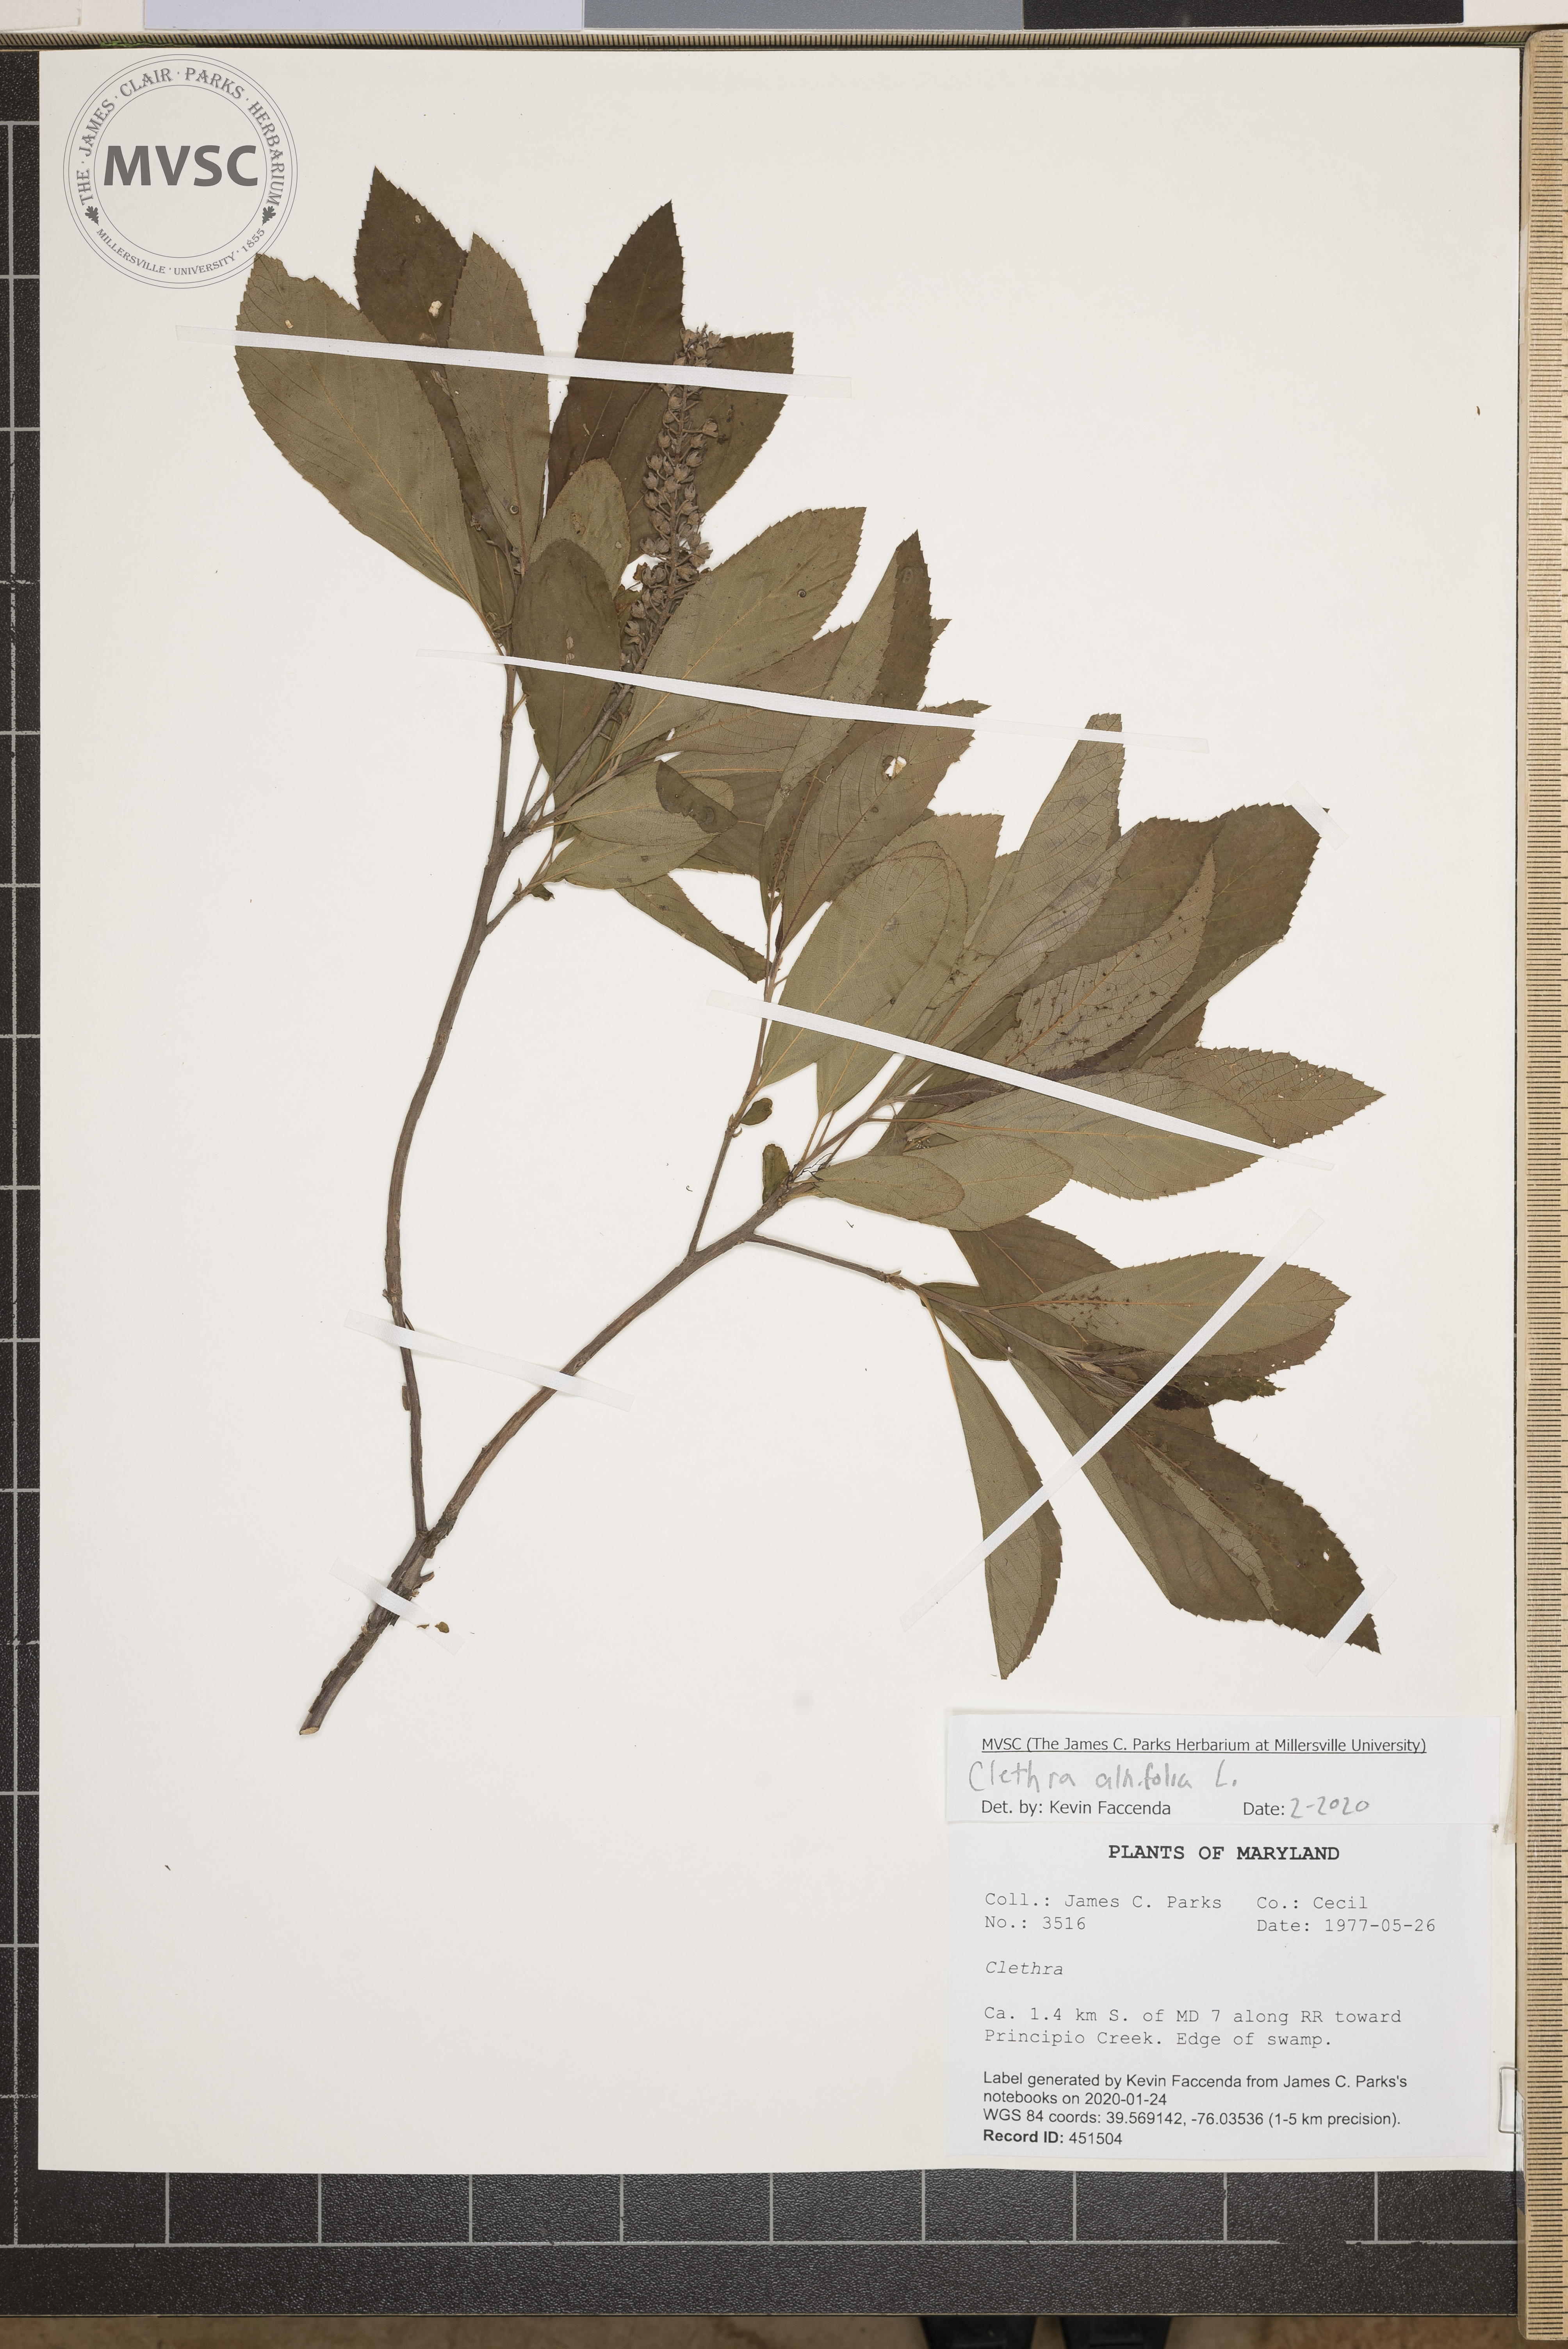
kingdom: Plantae
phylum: Tracheophyta
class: Magnoliopsida
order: Ericales
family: Clethraceae
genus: Clethra
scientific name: Clethra alnifolia
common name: Sweet pepperbush
